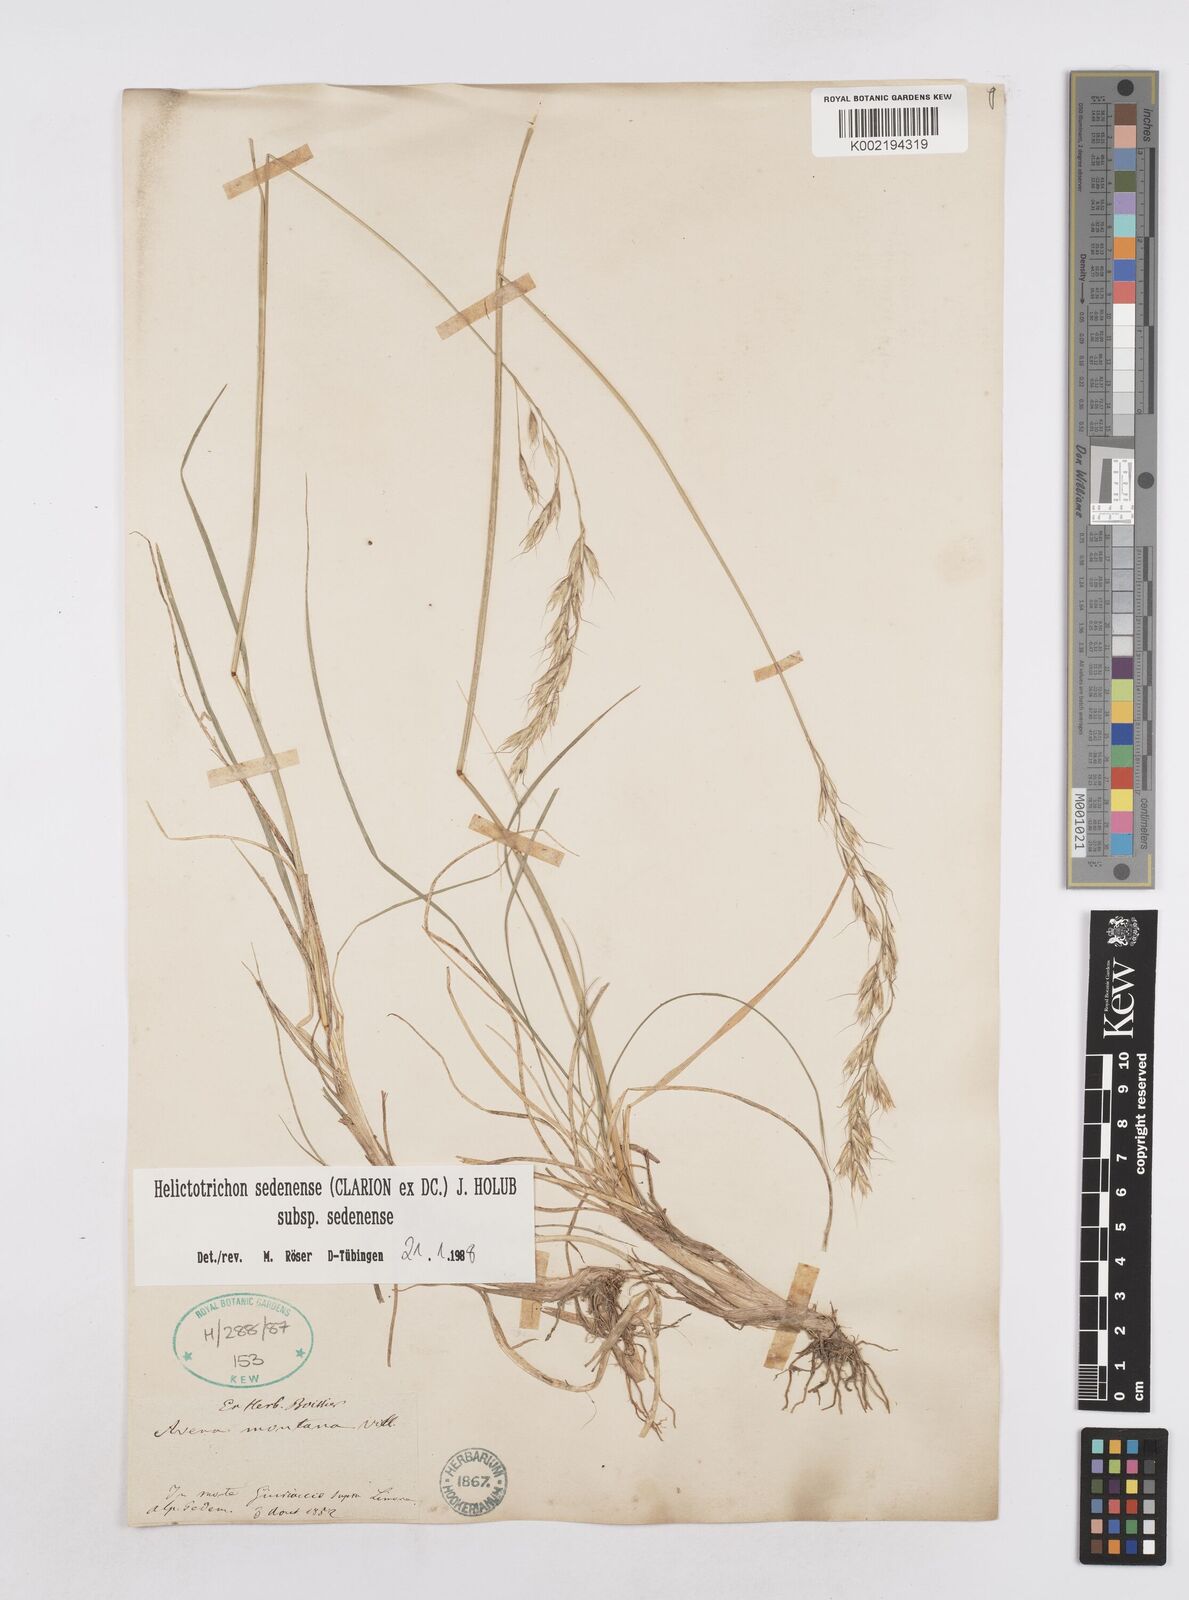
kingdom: Plantae
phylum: Tracheophyta
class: Liliopsida
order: Poales
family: Poaceae
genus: Helictotrichon
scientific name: Helictotrichon sedenense
